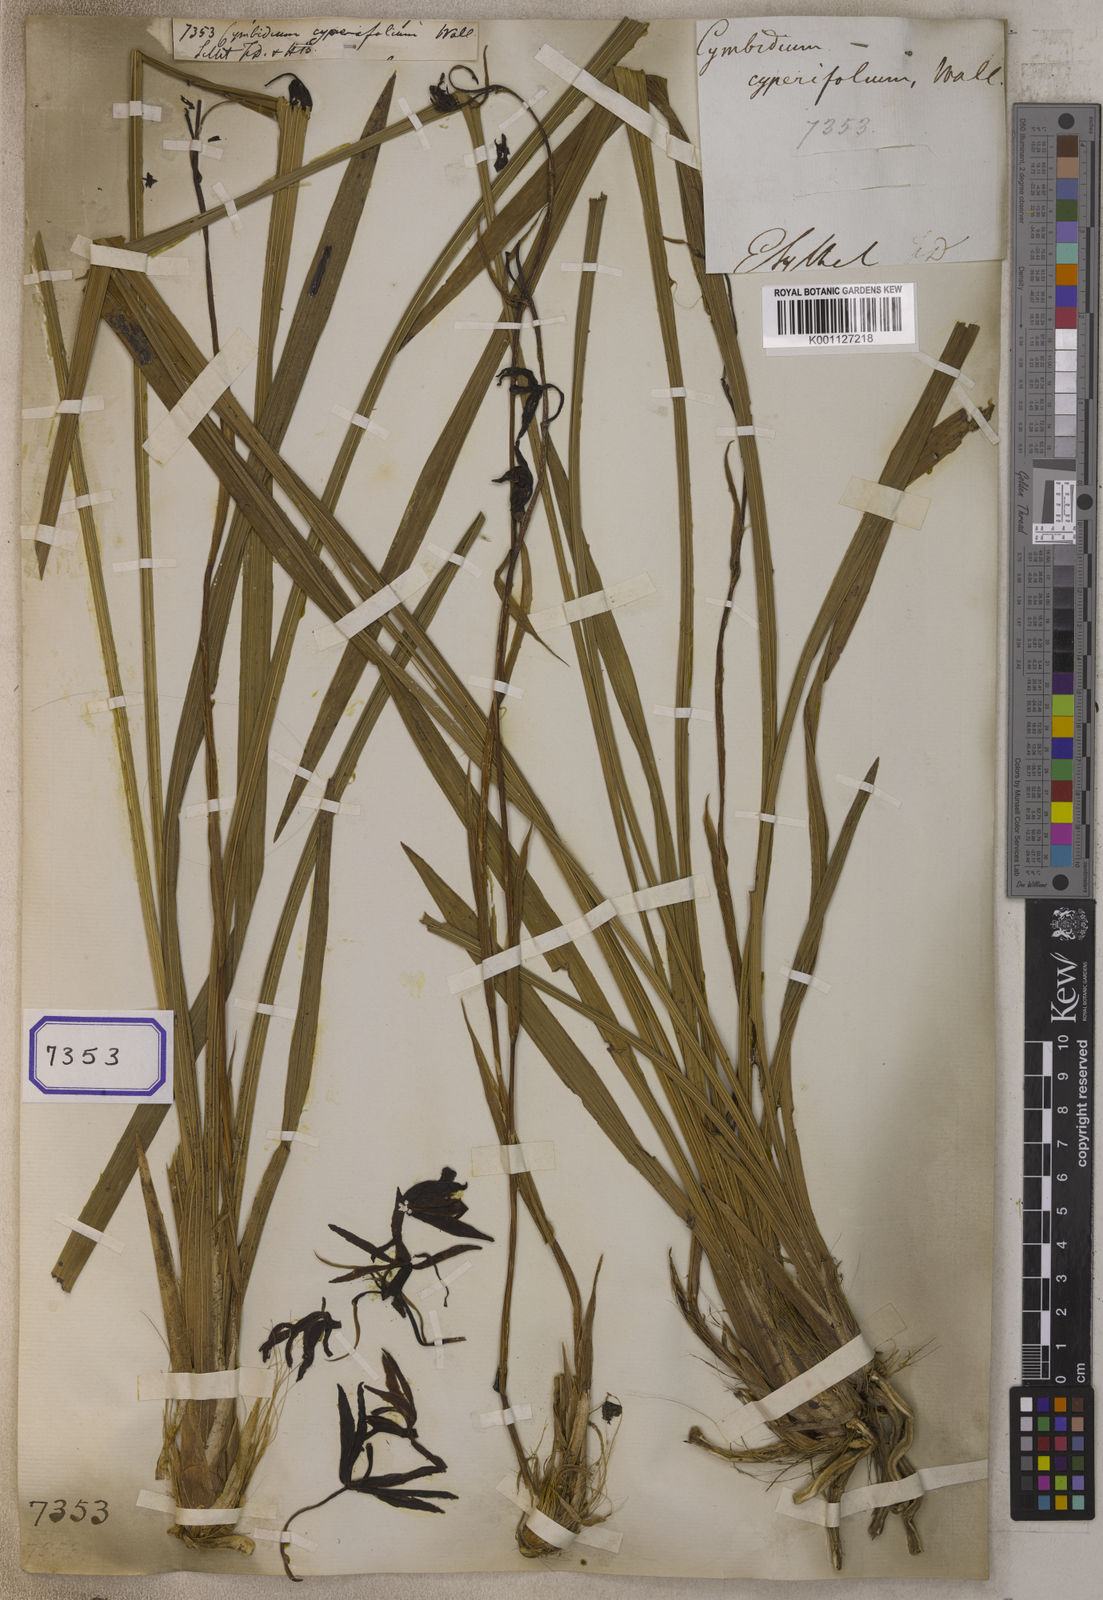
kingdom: Plantae
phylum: Tracheophyta
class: Liliopsida
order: Asparagales
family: Orchidaceae
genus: Cymbidium
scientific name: Cymbidium
